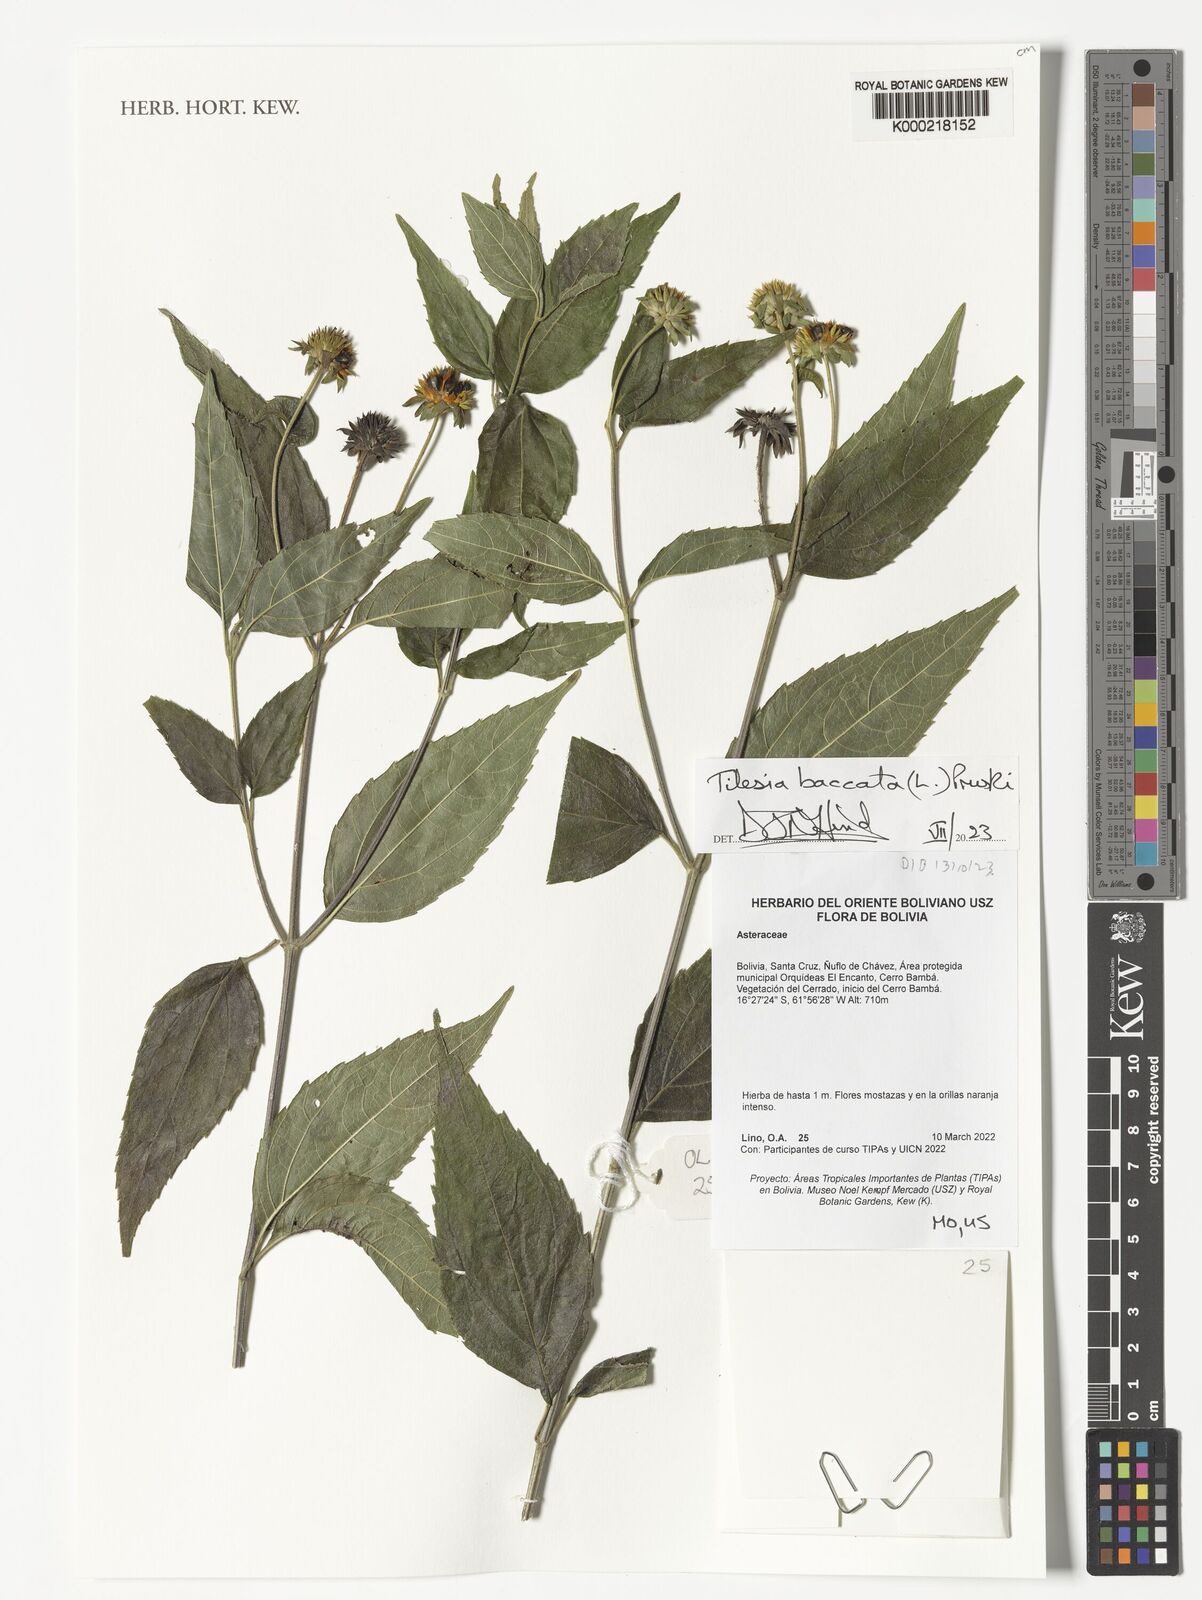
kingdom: Plantae
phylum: Tracheophyta
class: Magnoliopsida
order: Asterales
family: Asteraceae
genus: Tilesia
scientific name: Tilesia baccata
